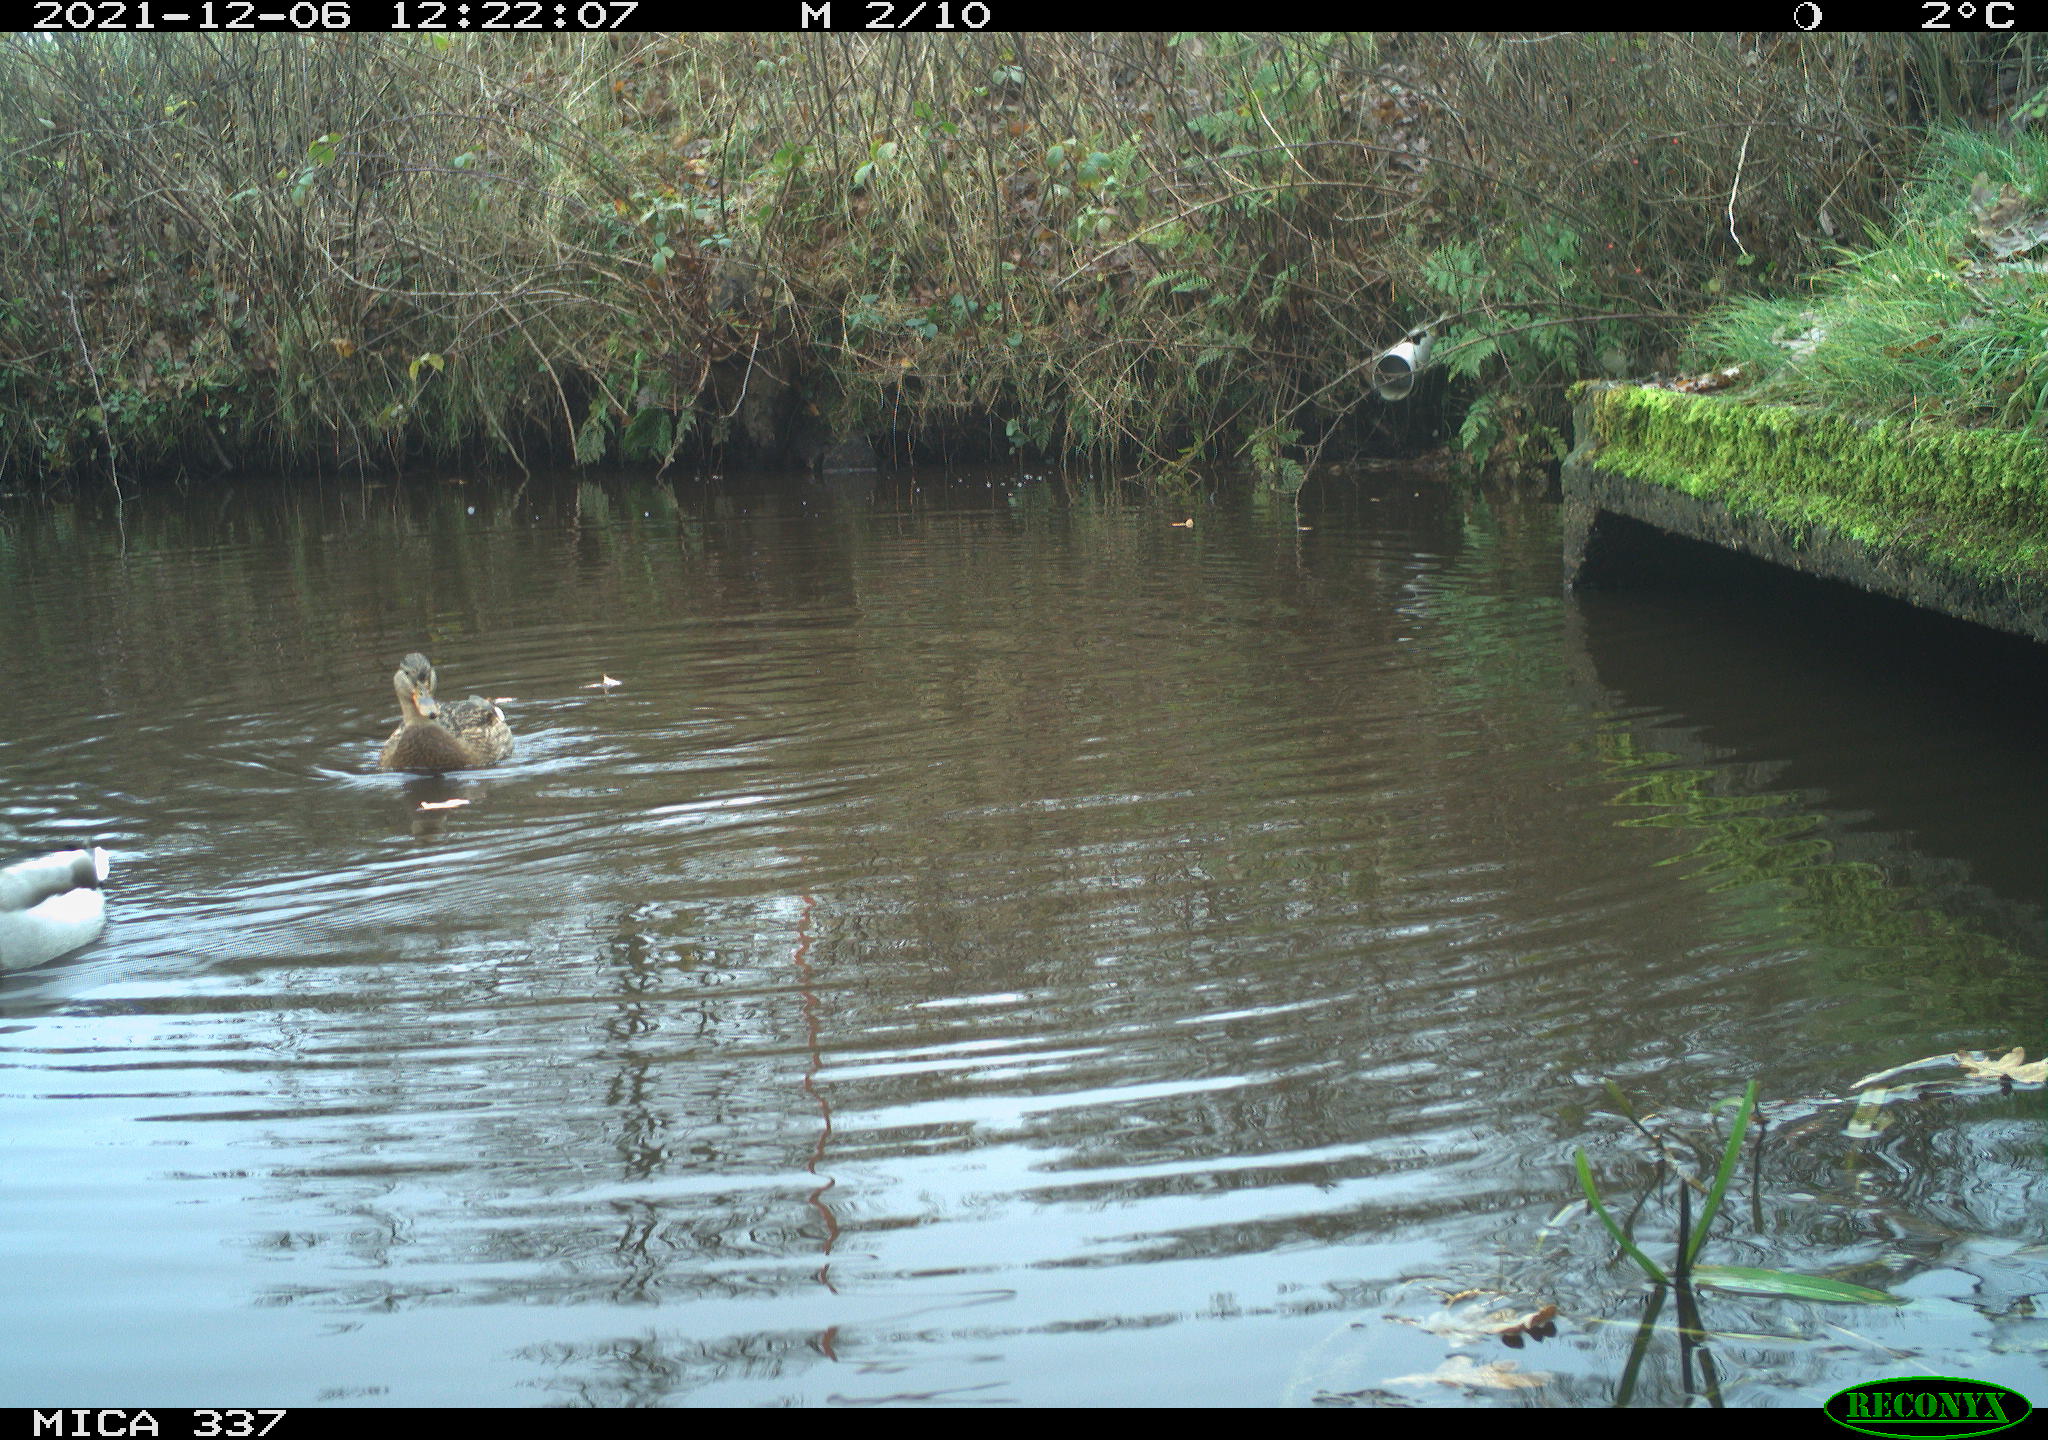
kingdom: Animalia
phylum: Chordata
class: Aves
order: Anseriformes
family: Anatidae
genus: Anas
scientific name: Anas platyrhynchos
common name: Mallard
